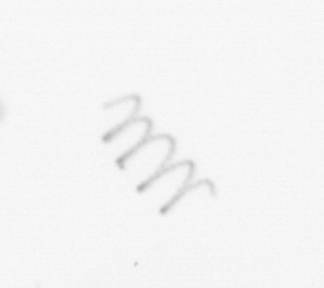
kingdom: Chromista
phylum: Ochrophyta
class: Bacillariophyceae
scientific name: Bacillariophyceae
